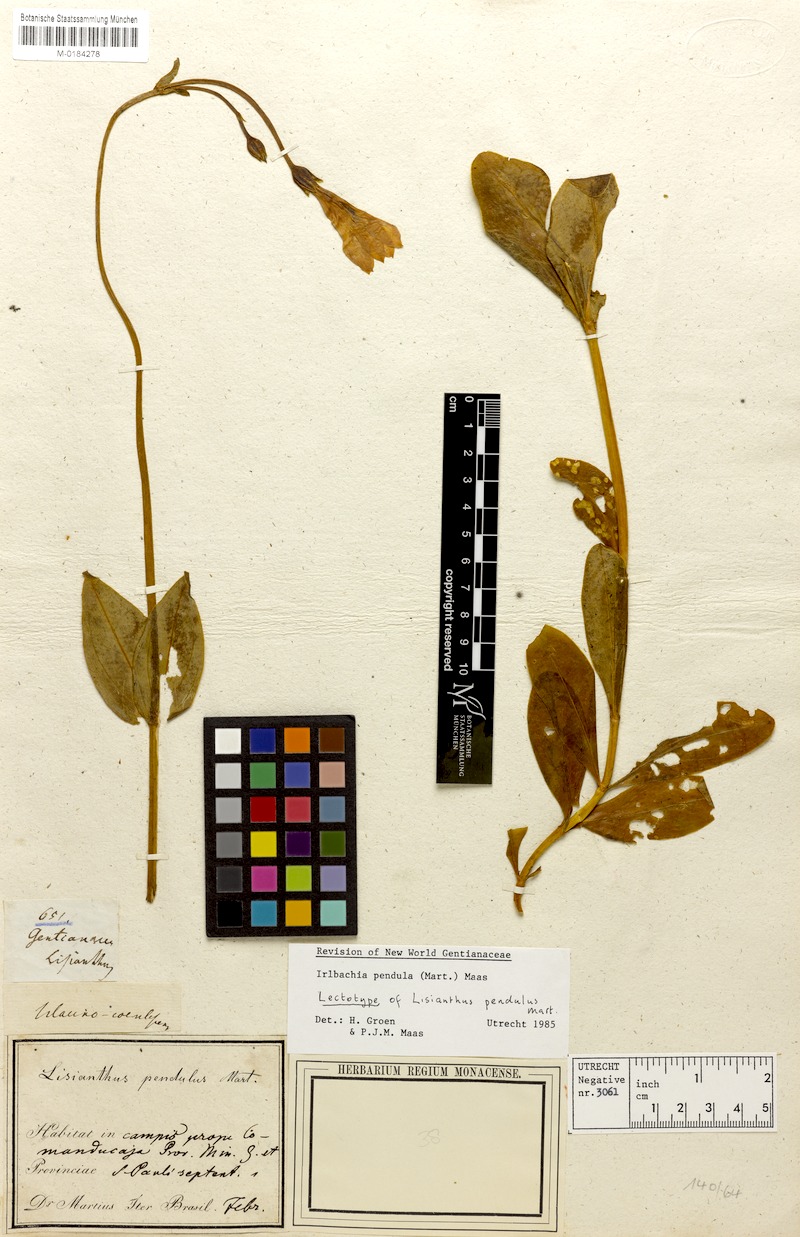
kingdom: Plantae
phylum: Tracheophyta
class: Magnoliopsida
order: Gentianales
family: Gentianaceae
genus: Calolisianthus
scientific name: Calolisianthus pendulus
